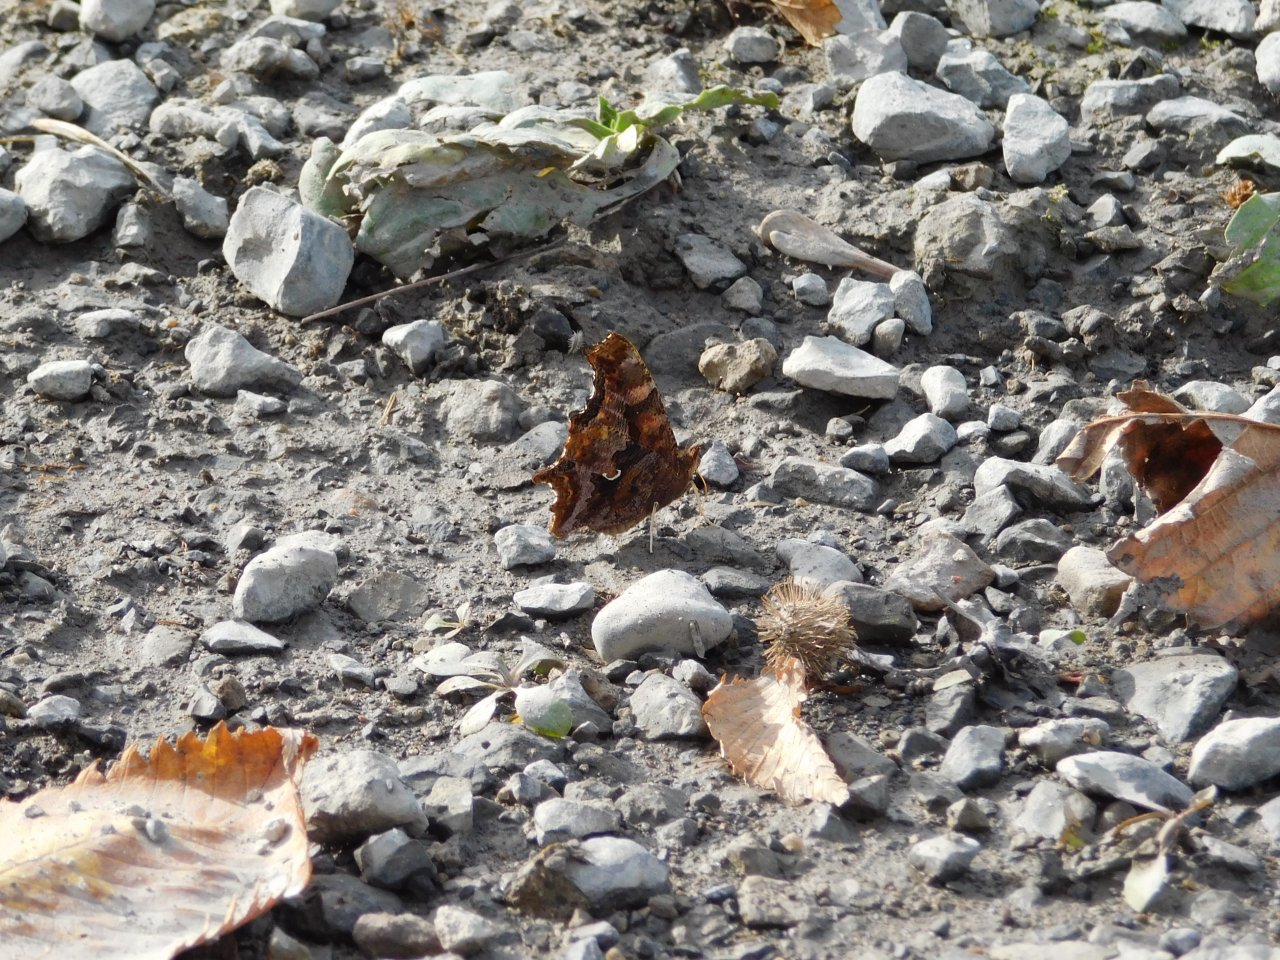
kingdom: Animalia
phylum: Arthropoda
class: Insecta
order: Lepidoptera
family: Nymphalidae
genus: Polygonia
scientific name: Polygonia comma
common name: Eastern Comma
